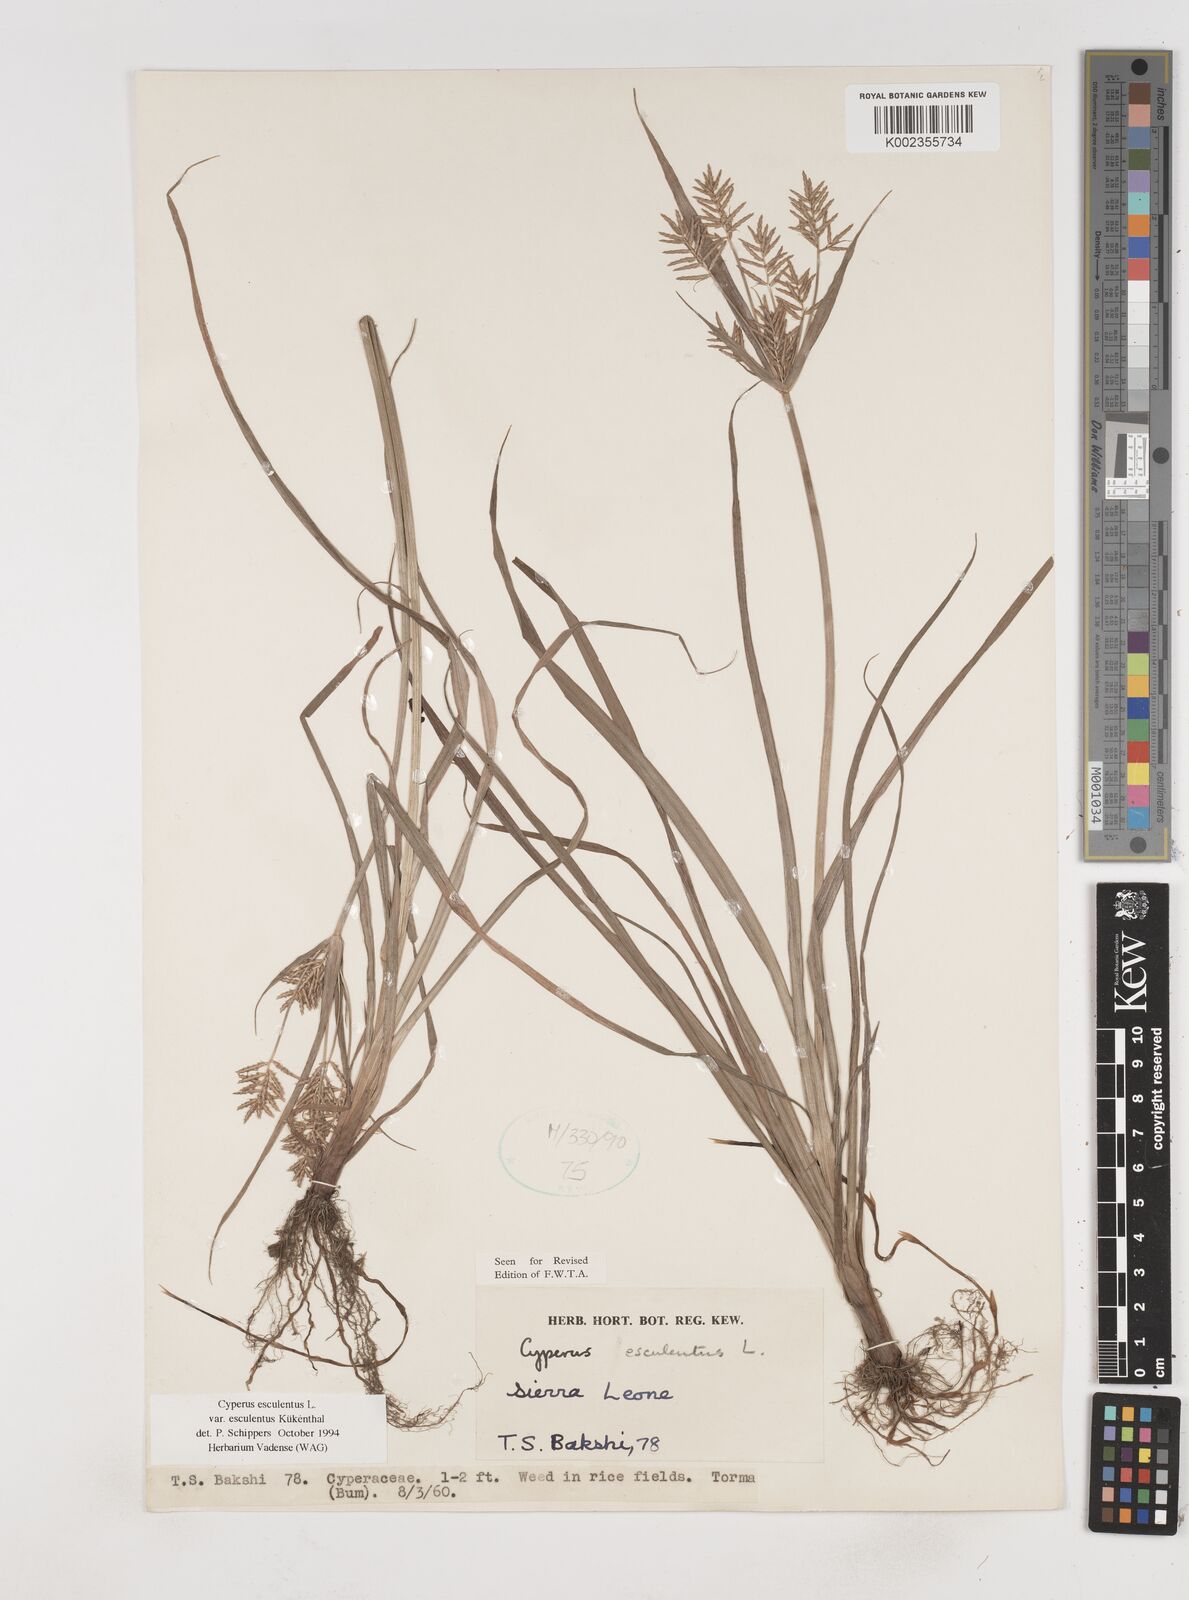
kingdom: Plantae
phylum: Tracheophyta
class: Liliopsida
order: Poales
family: Cyperaceae
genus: Cyperus
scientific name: Cyperus esculentus
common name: Yellow nutsedge
